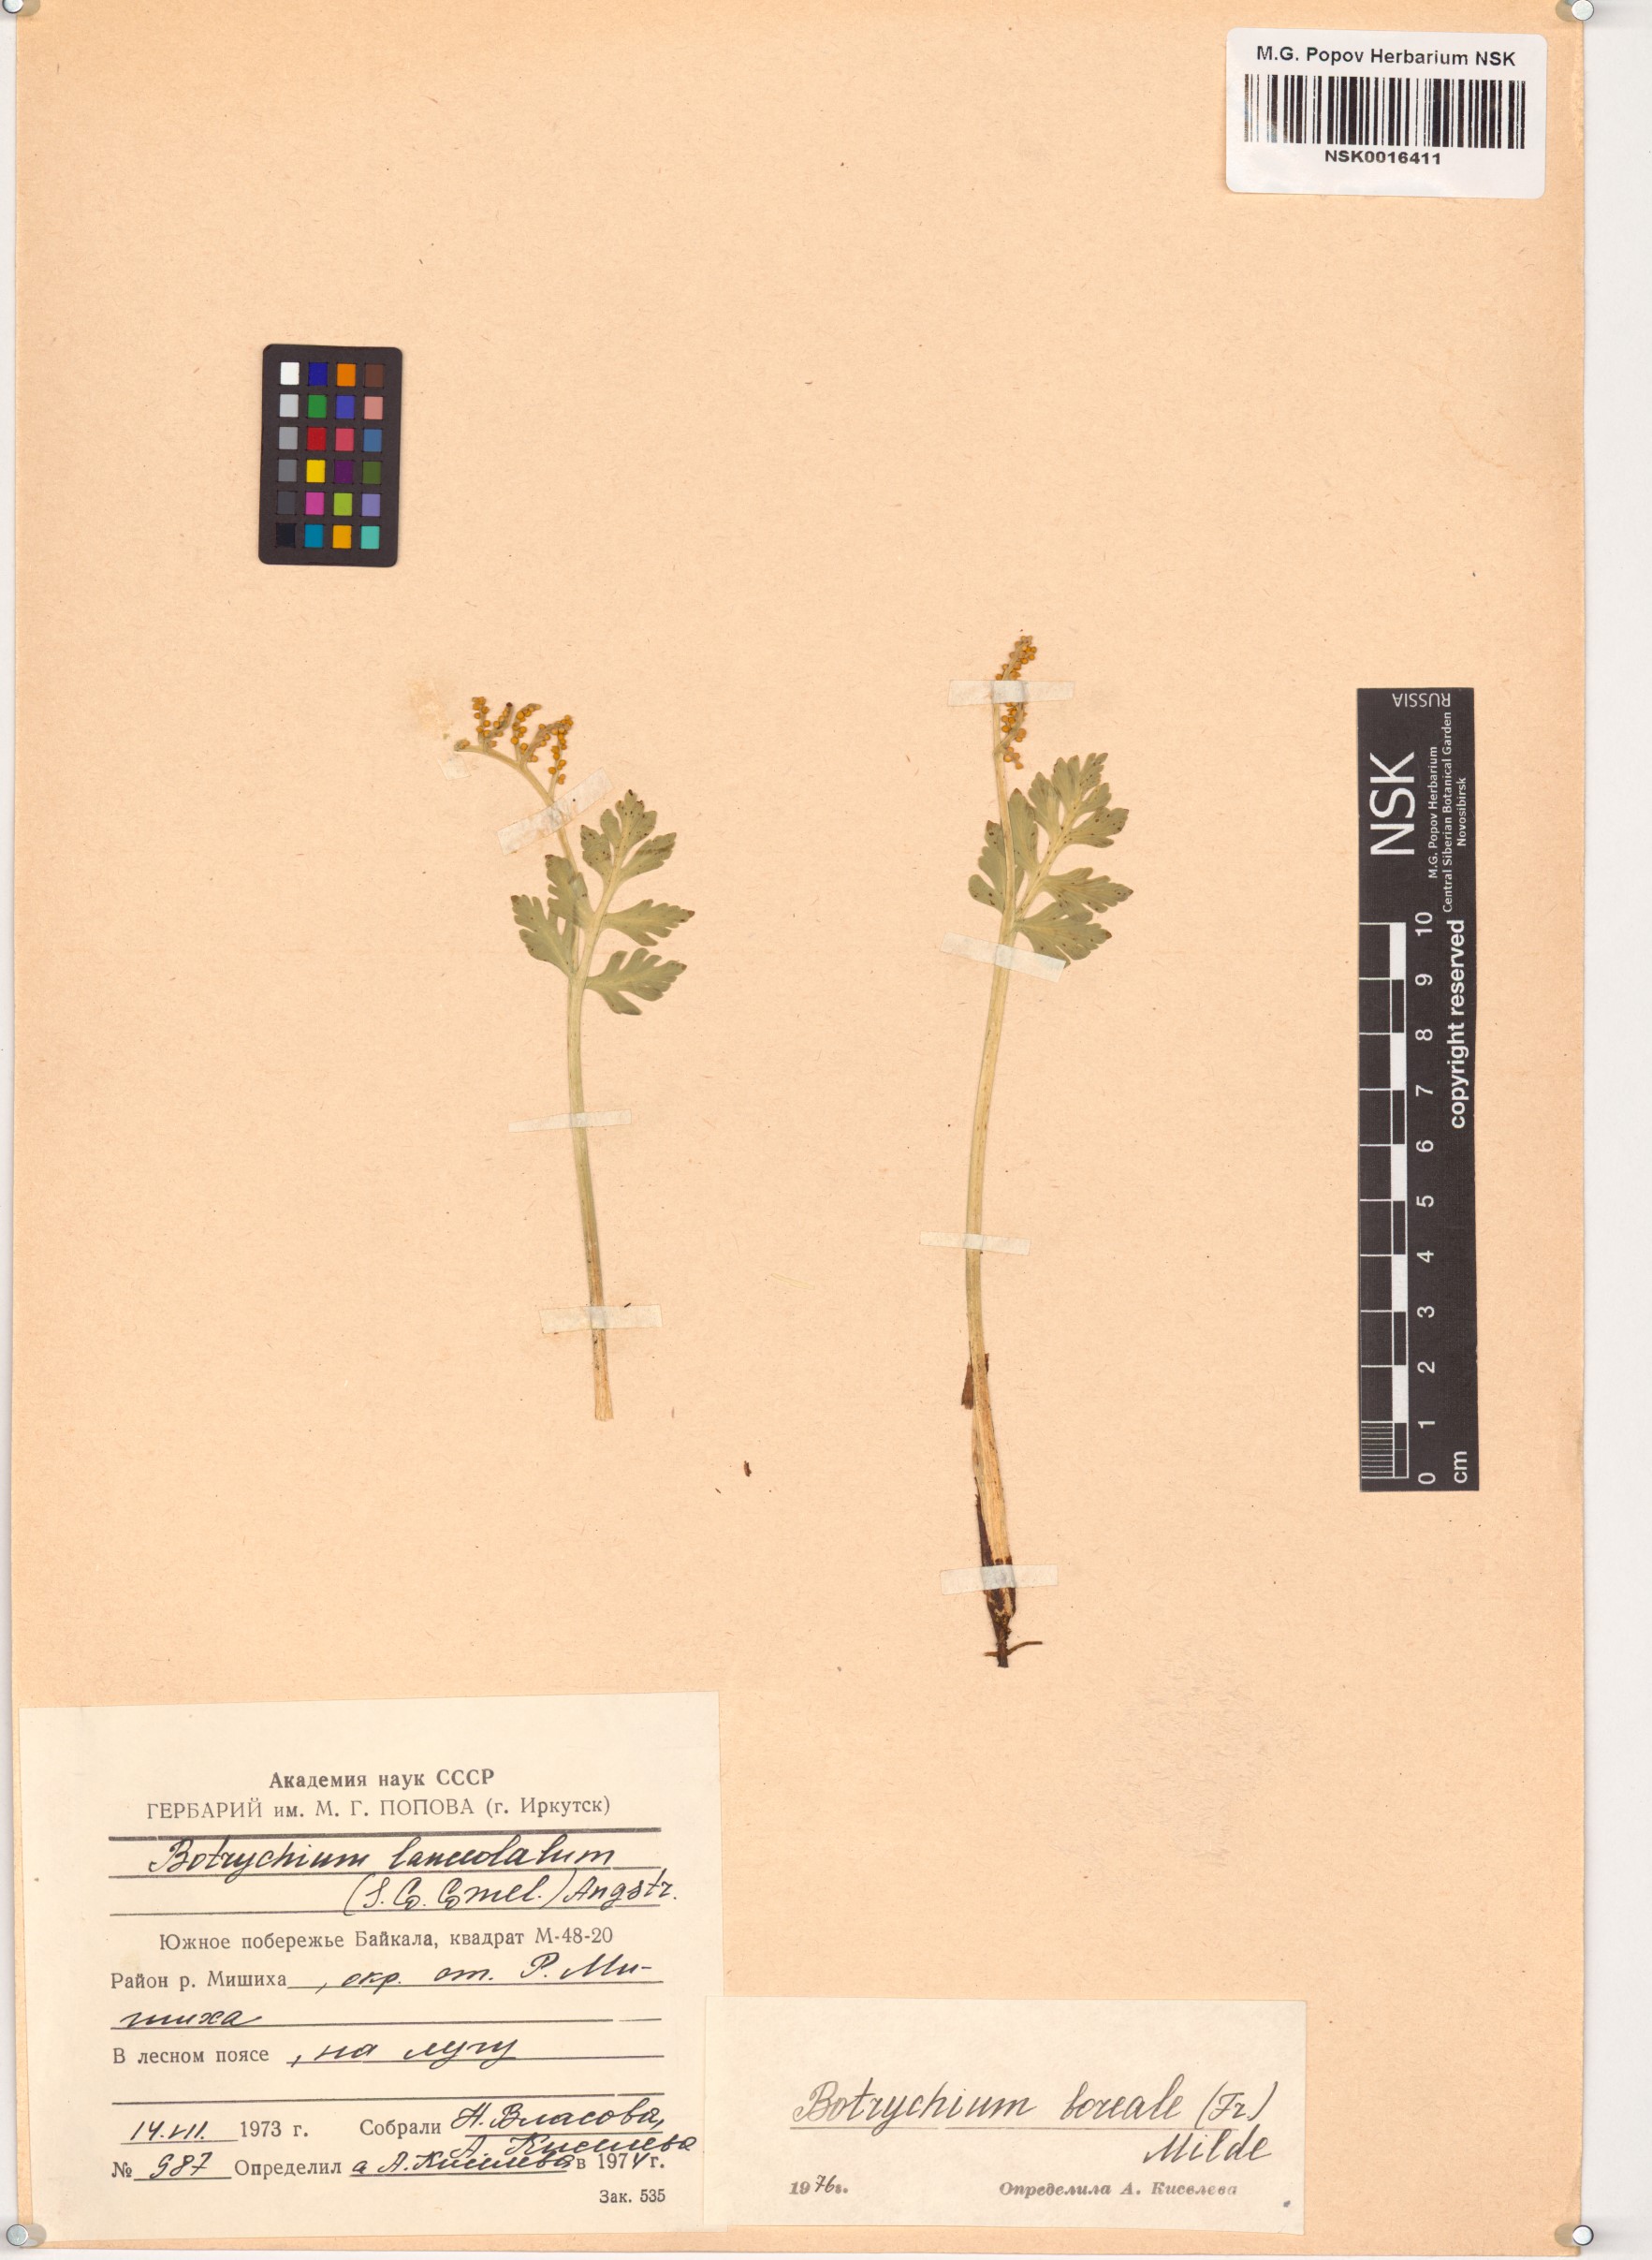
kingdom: Plantae
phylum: Tracheophyta
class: Polypodiopsida
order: Ophioglossales
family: Ophioglossaceae
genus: Botrychium
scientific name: Botrychium boreale
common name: Boreal moonwort
